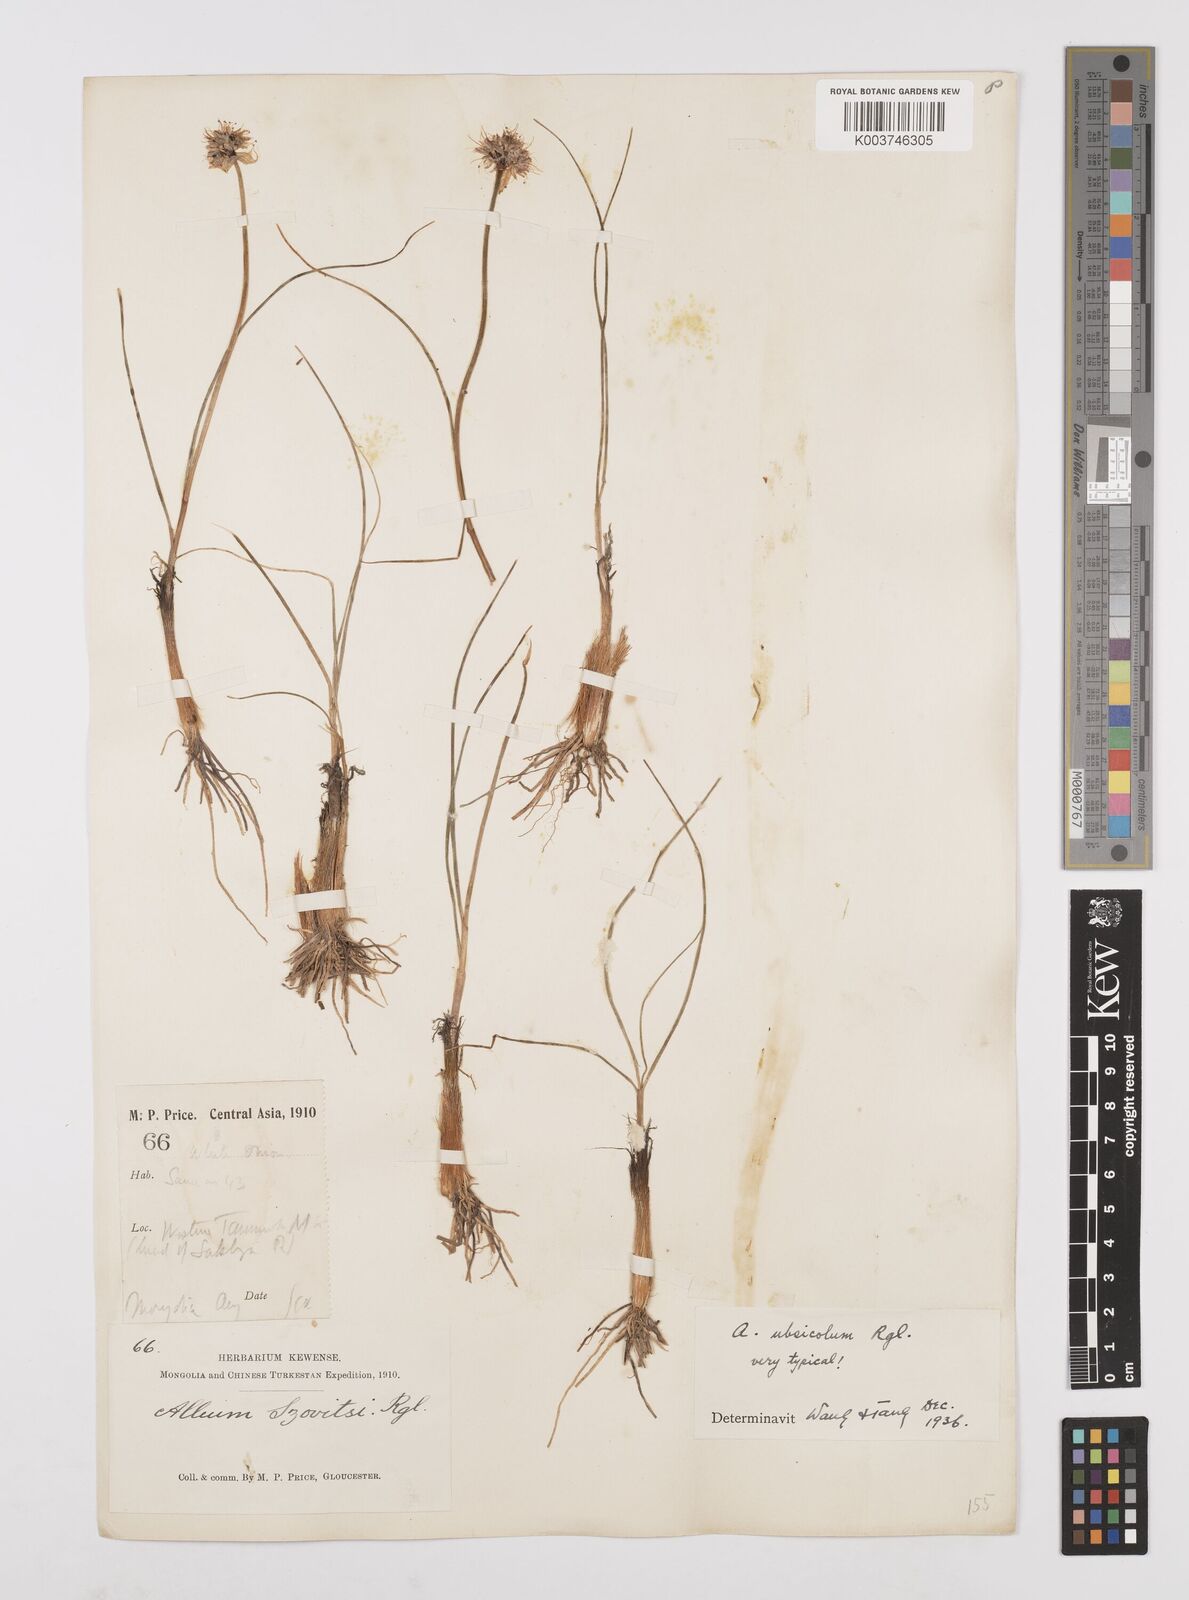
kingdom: Plantae
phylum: Tracheophyta
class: Liliopsida
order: Asparagales
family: Amaryllidaceae
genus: Allium
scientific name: Allium ubsicola
